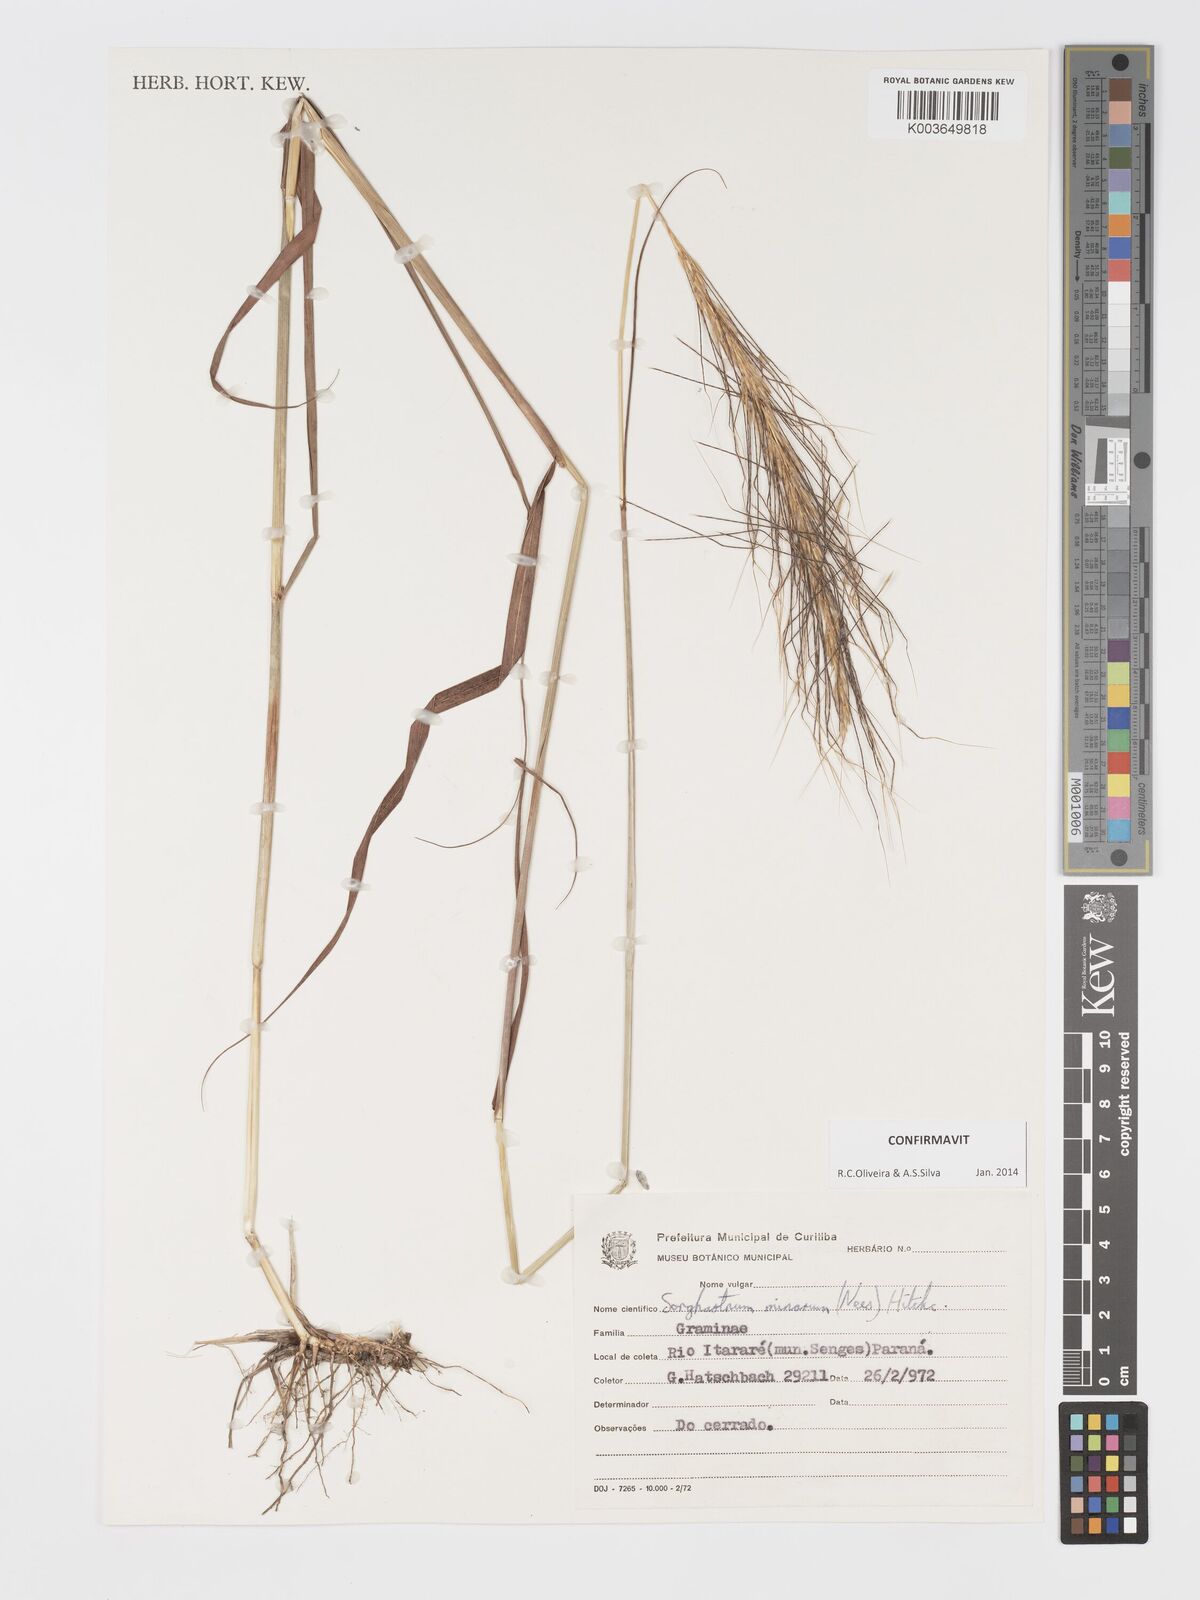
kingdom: Plantae
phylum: Tracheophyta
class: Liliopsida
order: Poales
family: Poaceae
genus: Sorghastrum
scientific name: Sorghastrum minarum
